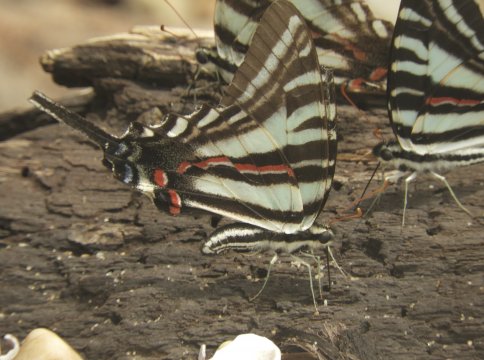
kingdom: Animalia
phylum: Arthropoda
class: Insecta
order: Lepidoptera
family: Papilionidae
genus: Protographium
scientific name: Protographium marcellus
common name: Zebra Swallowtail
